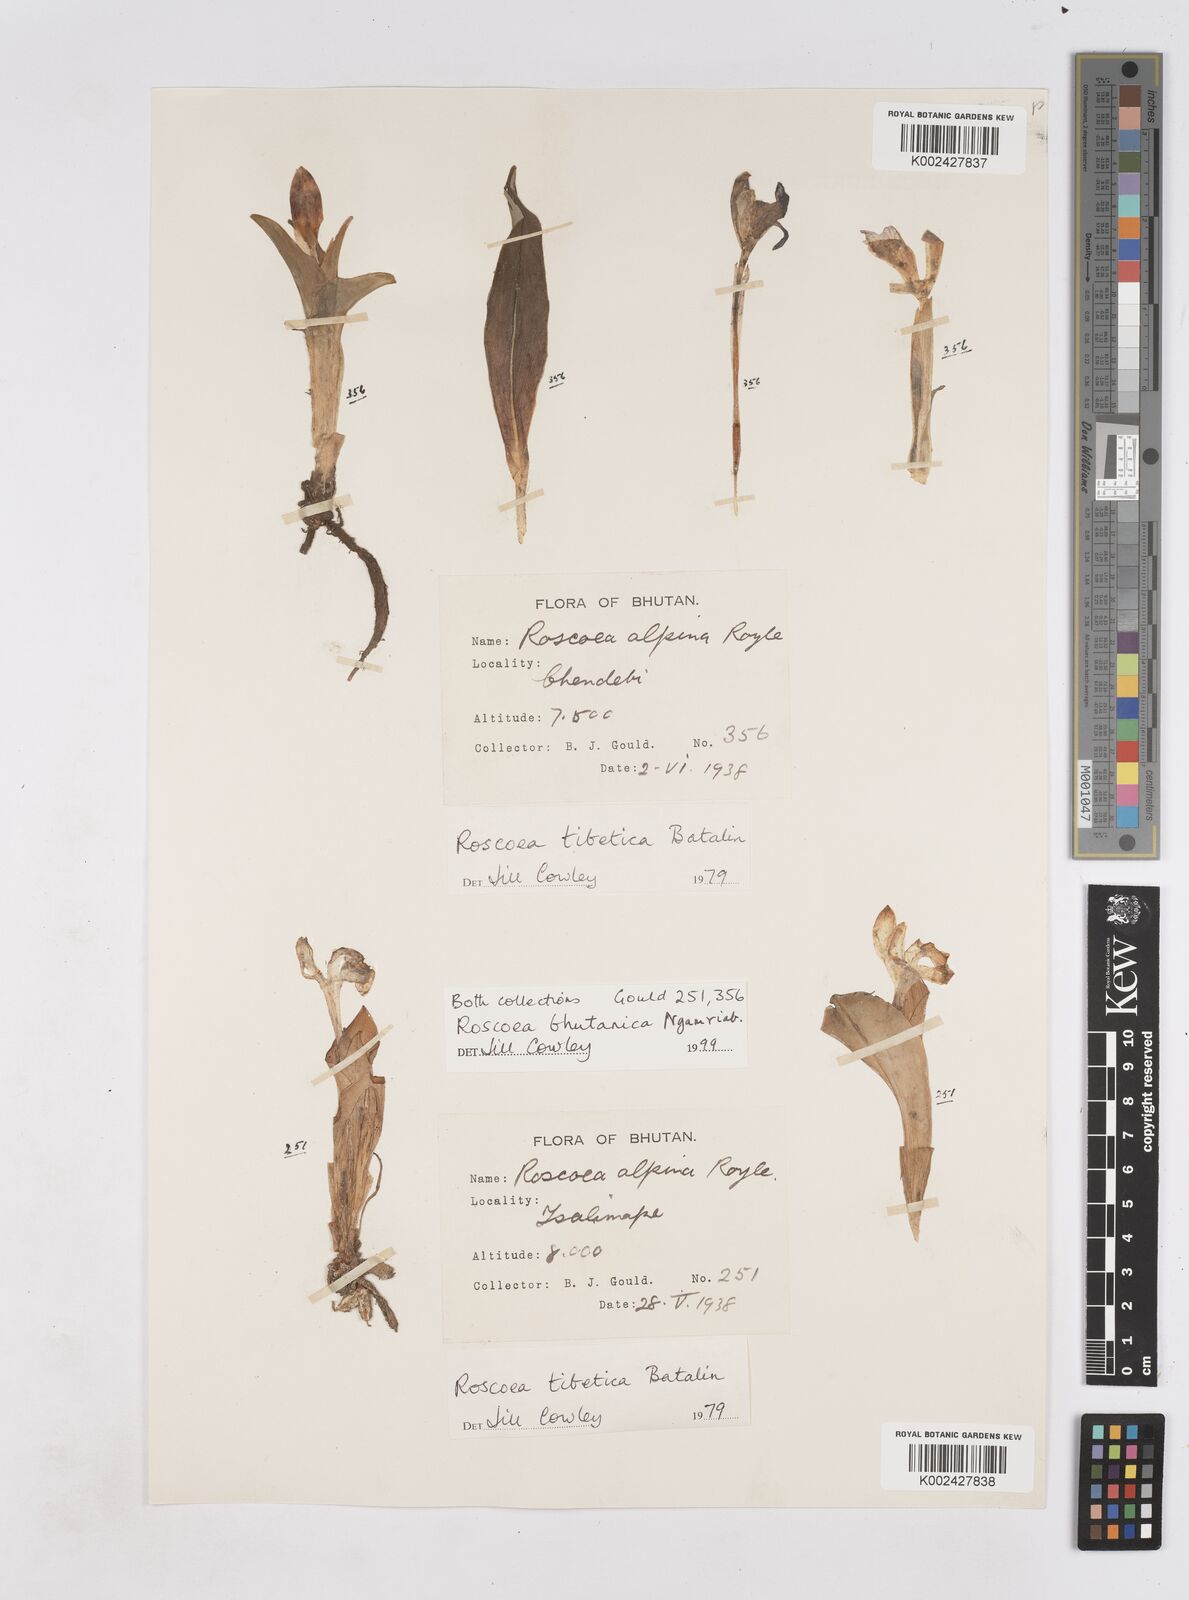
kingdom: Plantae
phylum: Tracheophyta
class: Liliopsida
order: Zingiberales
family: Zingiberaceae
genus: Roscoea
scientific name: Roscoea bhutanica
